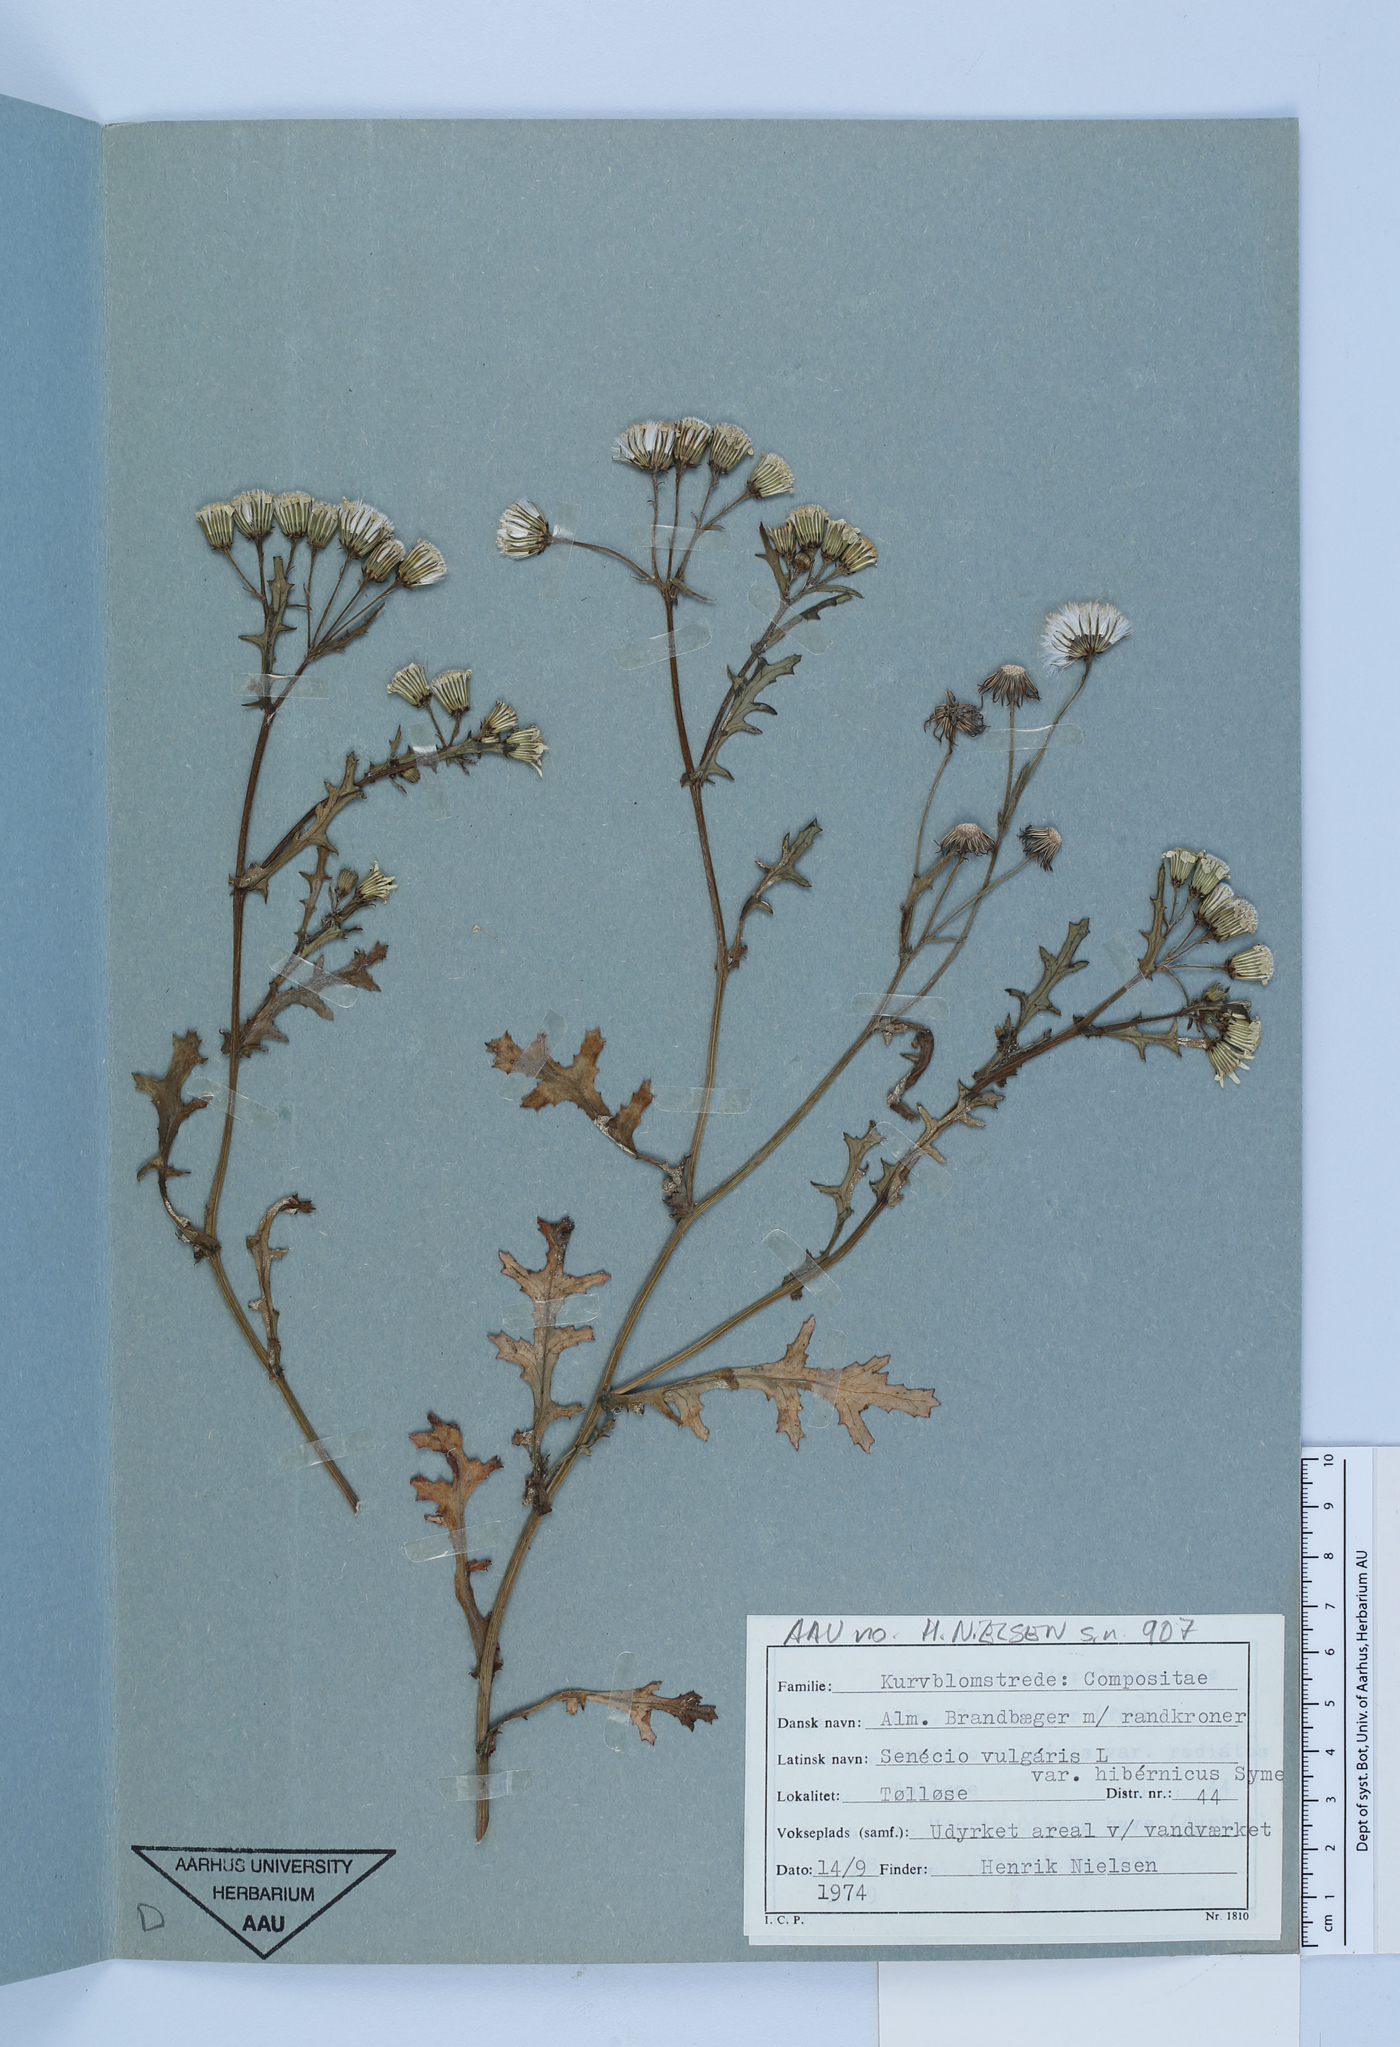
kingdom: Plantae
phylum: Tracheophyta
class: Magnoliopsida
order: Asterales
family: Asteraceae
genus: Senecio
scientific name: Senecio vulgaris
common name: Old-man-in-the-spring
